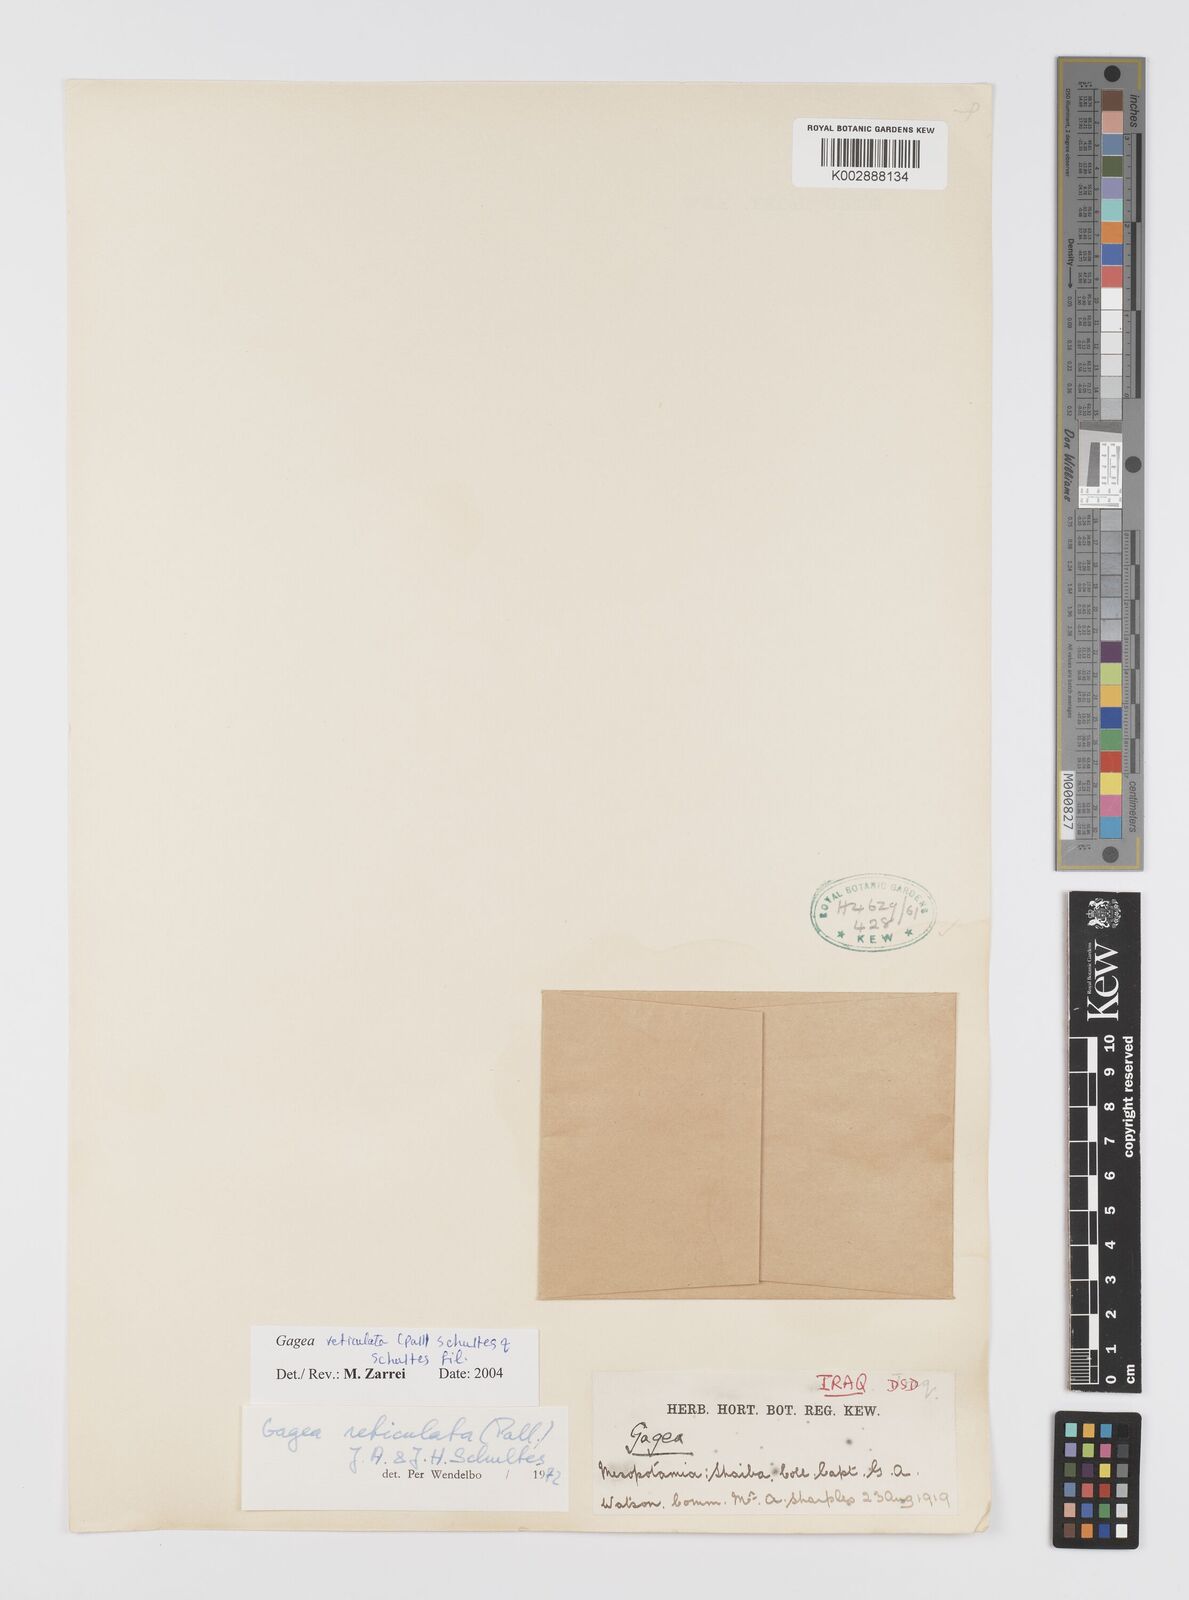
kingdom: Plantae
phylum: Tracheophyta
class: Liliopsida
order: Liliales
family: Liliaceae
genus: Gagea
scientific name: Gagea reticulata
